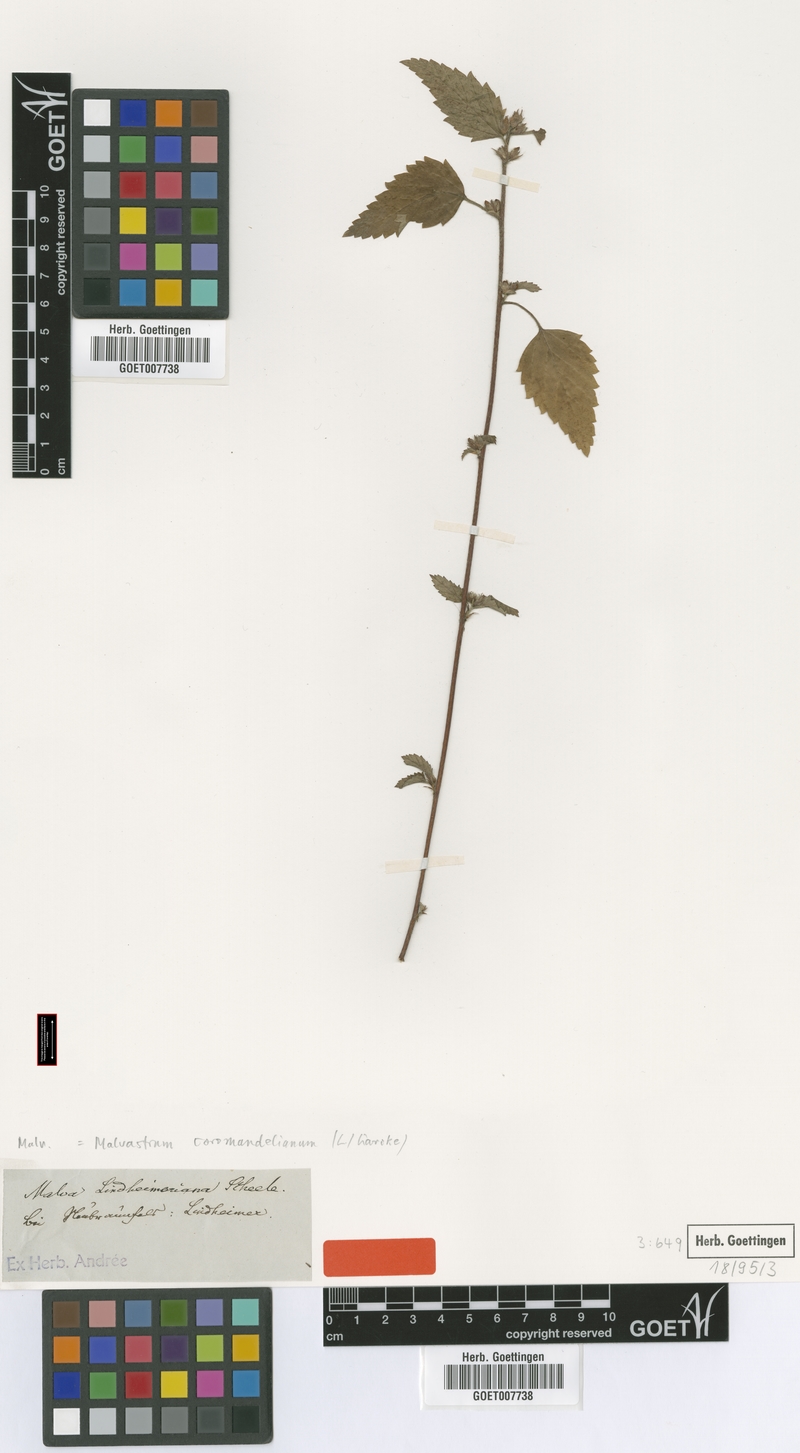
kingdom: Plantae
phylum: Tracheophyta
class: Magnoliopsida
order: Malvales
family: Malvaceae
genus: Malvastrum
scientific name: Malvastrum coromandelianum
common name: Threelobe false mallow
